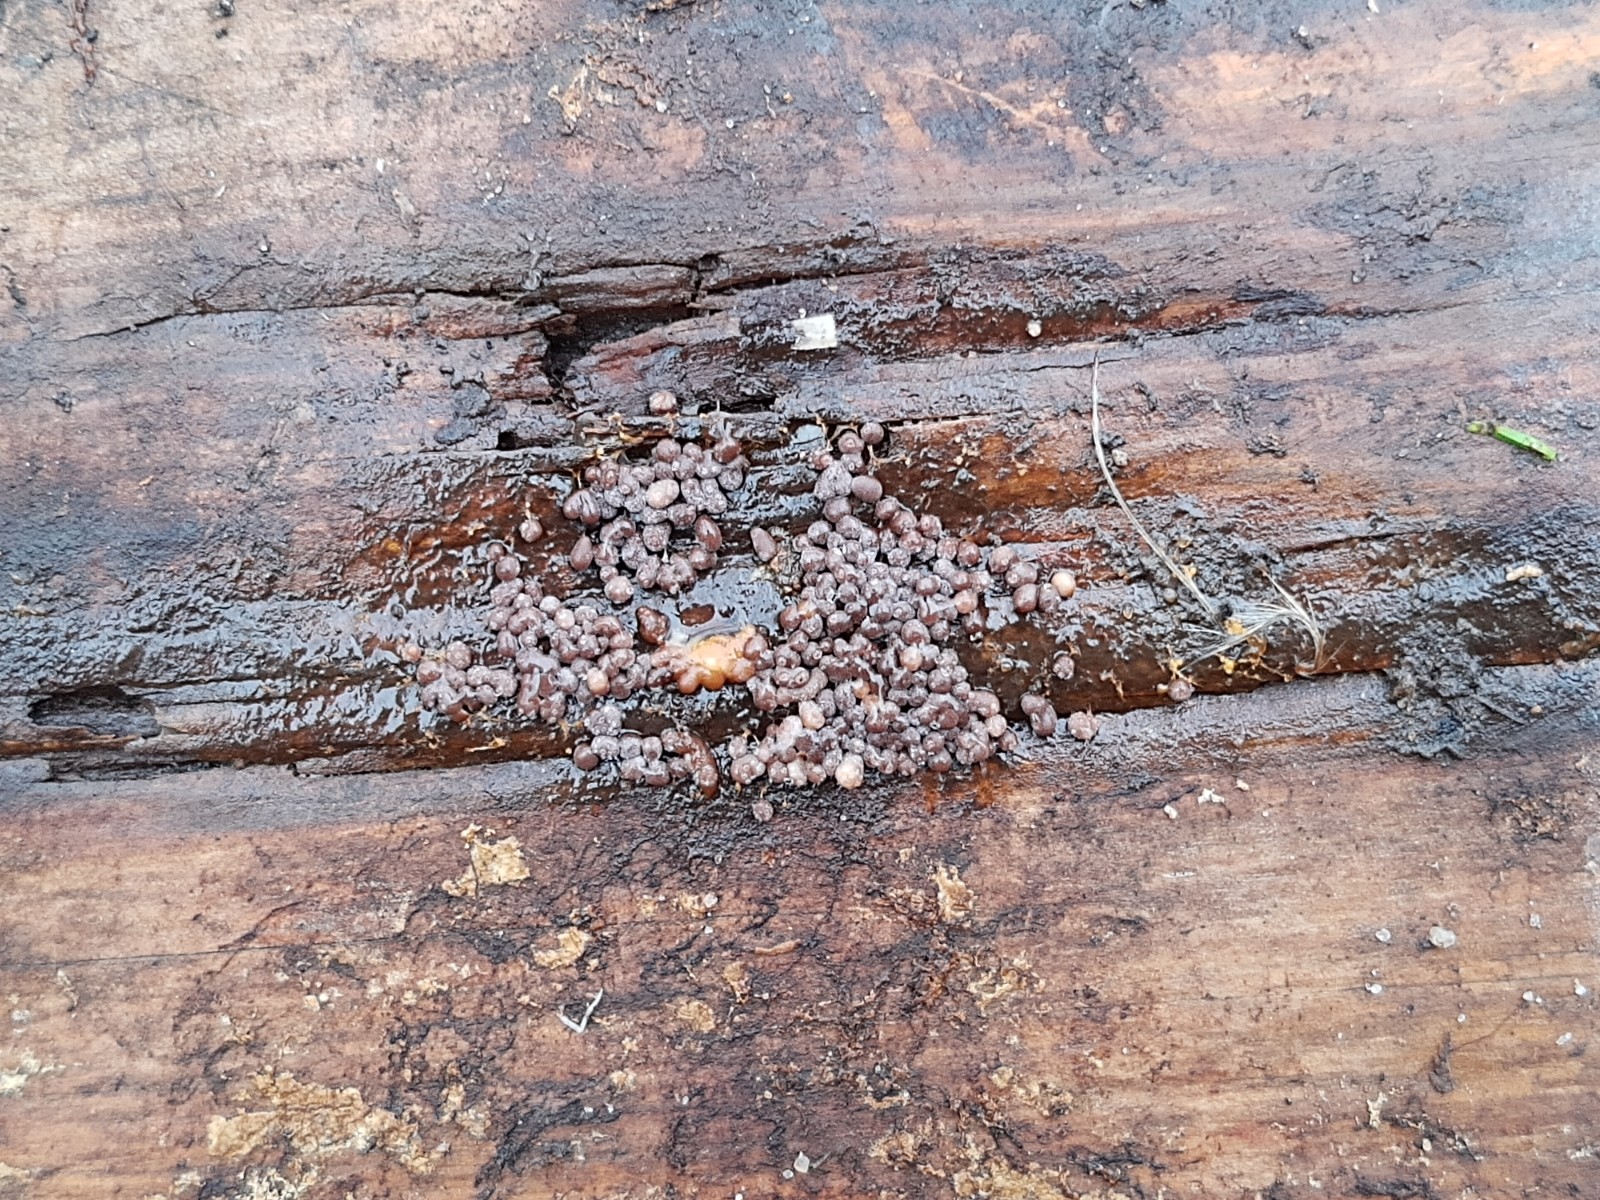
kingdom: Protozoa
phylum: Mycetozoa
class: Myxomycetes
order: Physarales
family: Physaraceae
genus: Badhamia
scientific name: Badhamia utricularis
